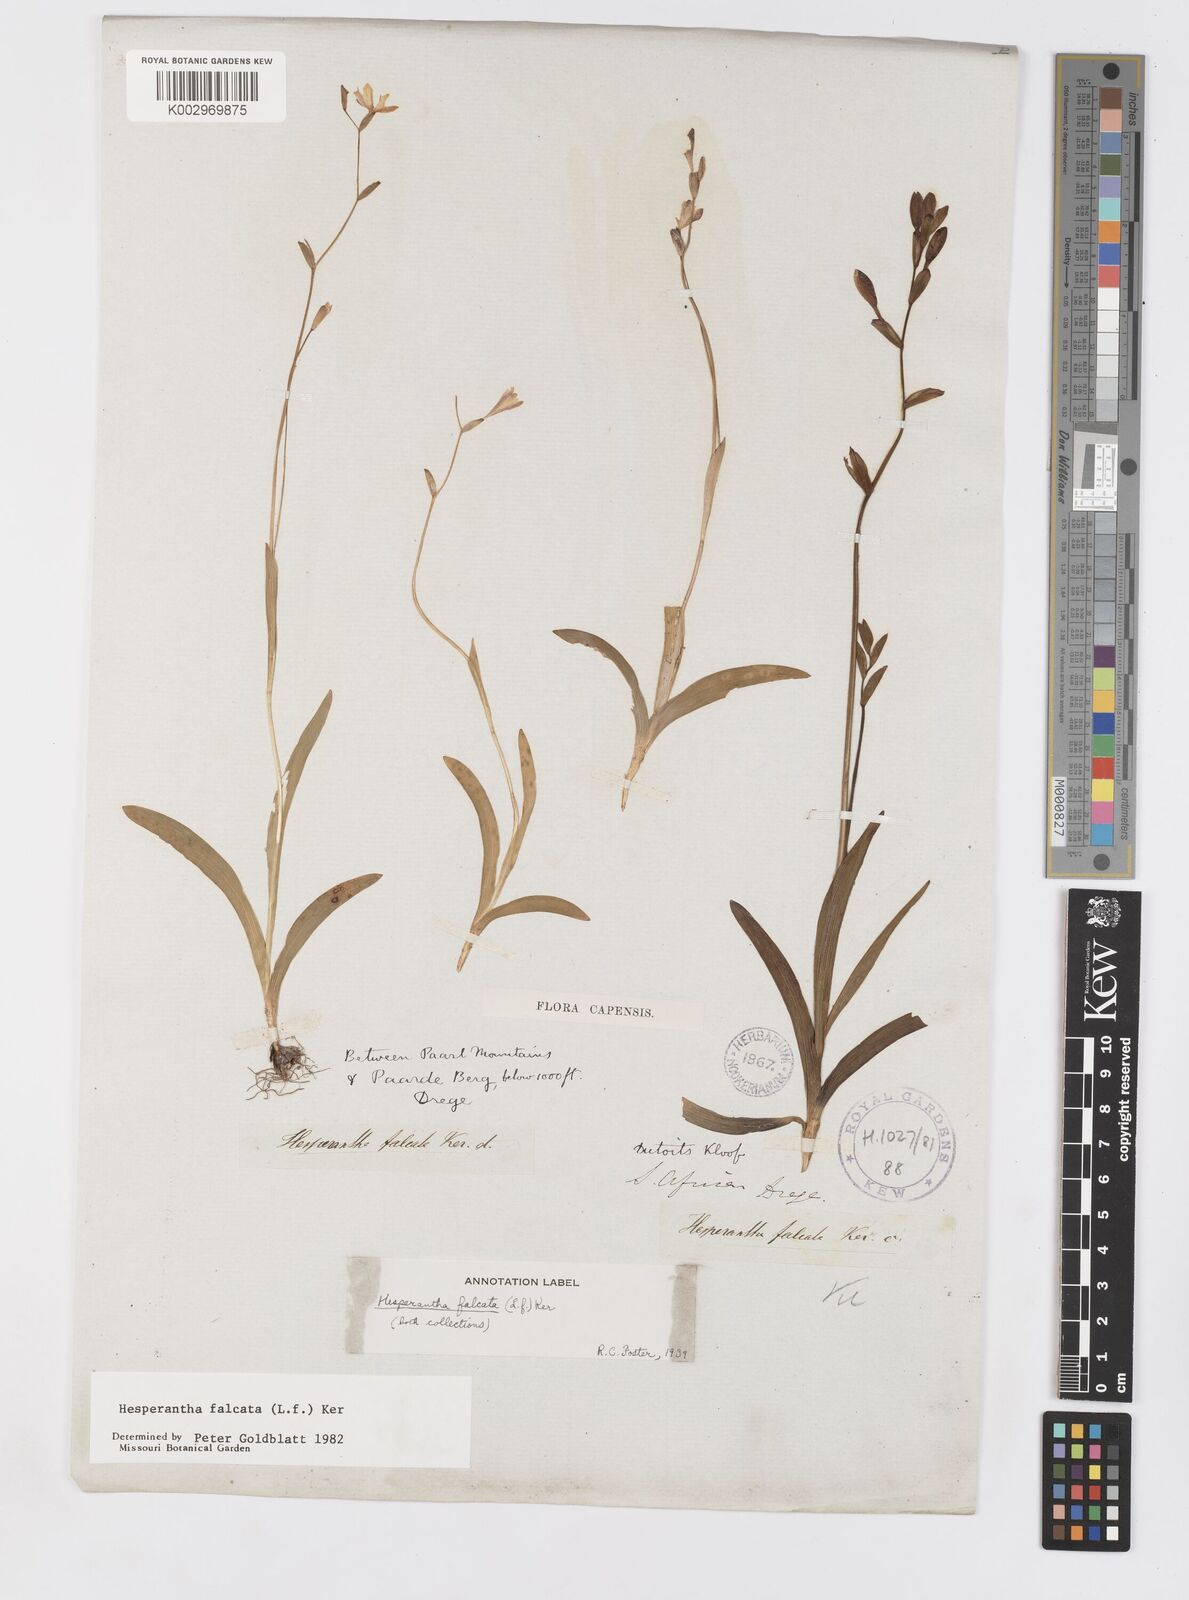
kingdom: Plantae
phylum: Tracheophyta
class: Liliopsida
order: Asparagales
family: Iridaceae
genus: Hesperantha
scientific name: Hesperantha falcata
